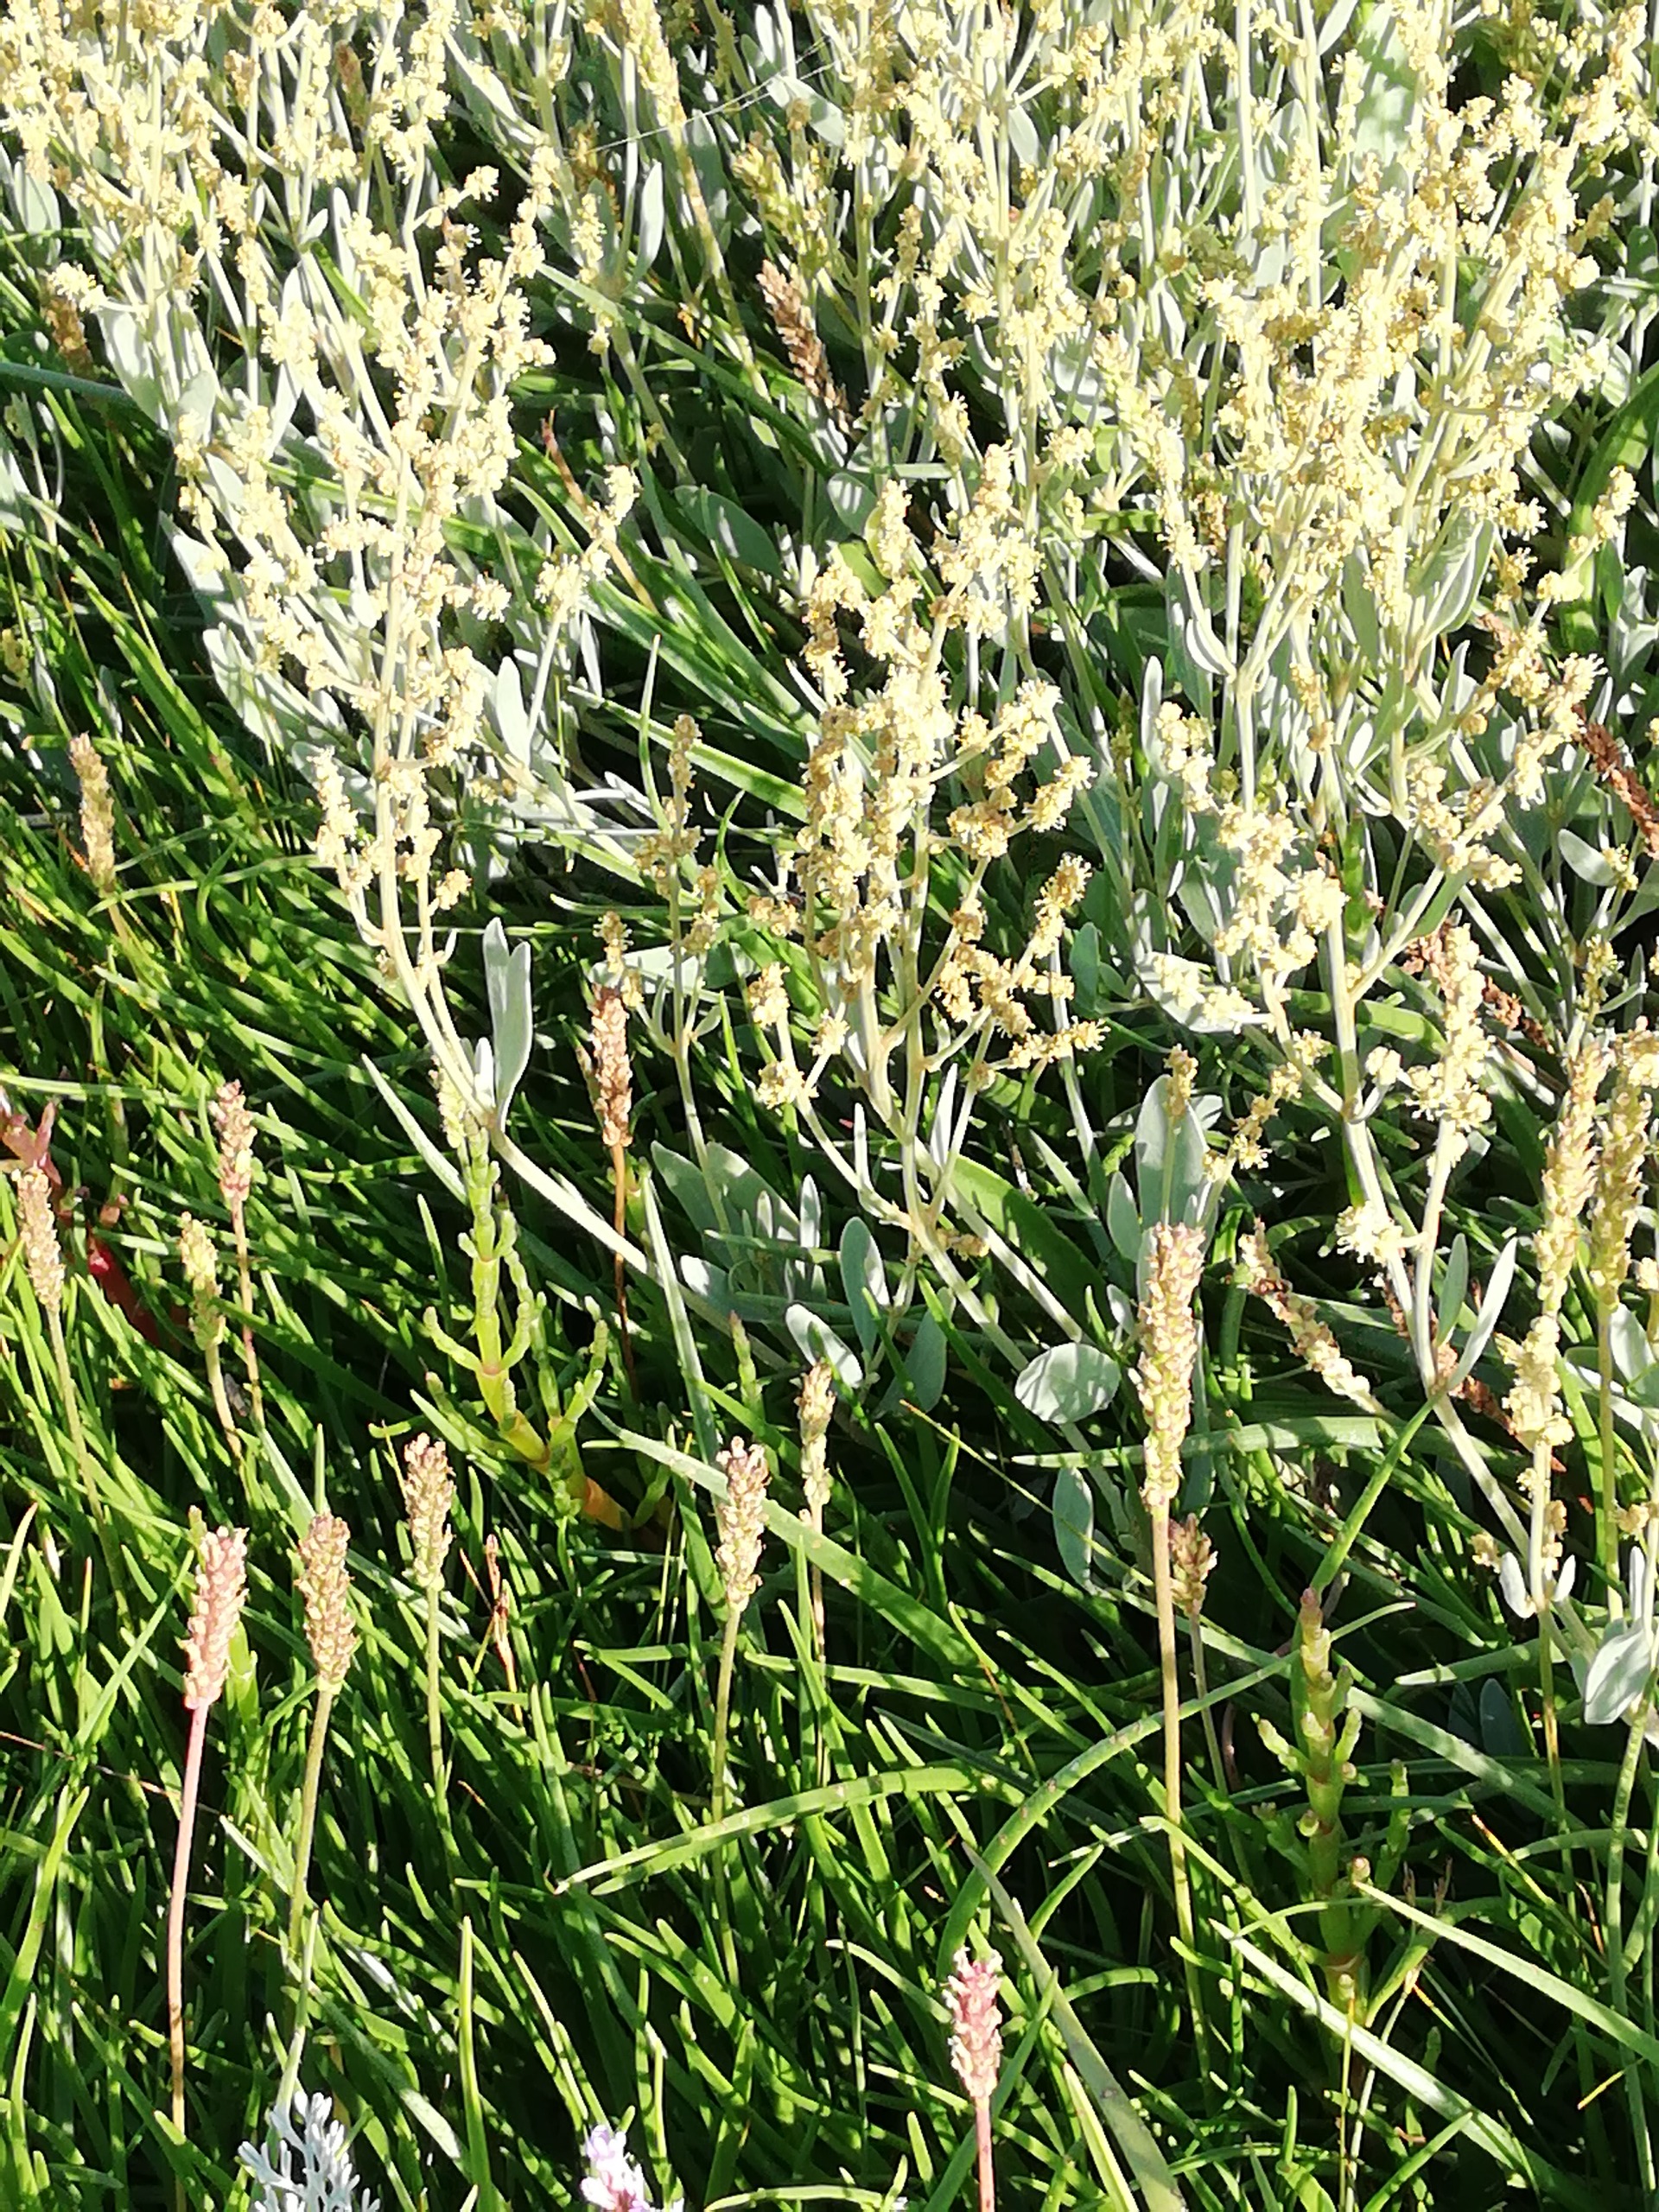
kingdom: Plantae
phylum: Tracheophyta
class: Magnoliopsida
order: Caryophyllales
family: Amaranthaceae
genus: Halimione
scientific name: Halimione portulacoides
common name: Stilkløs kilebæger
